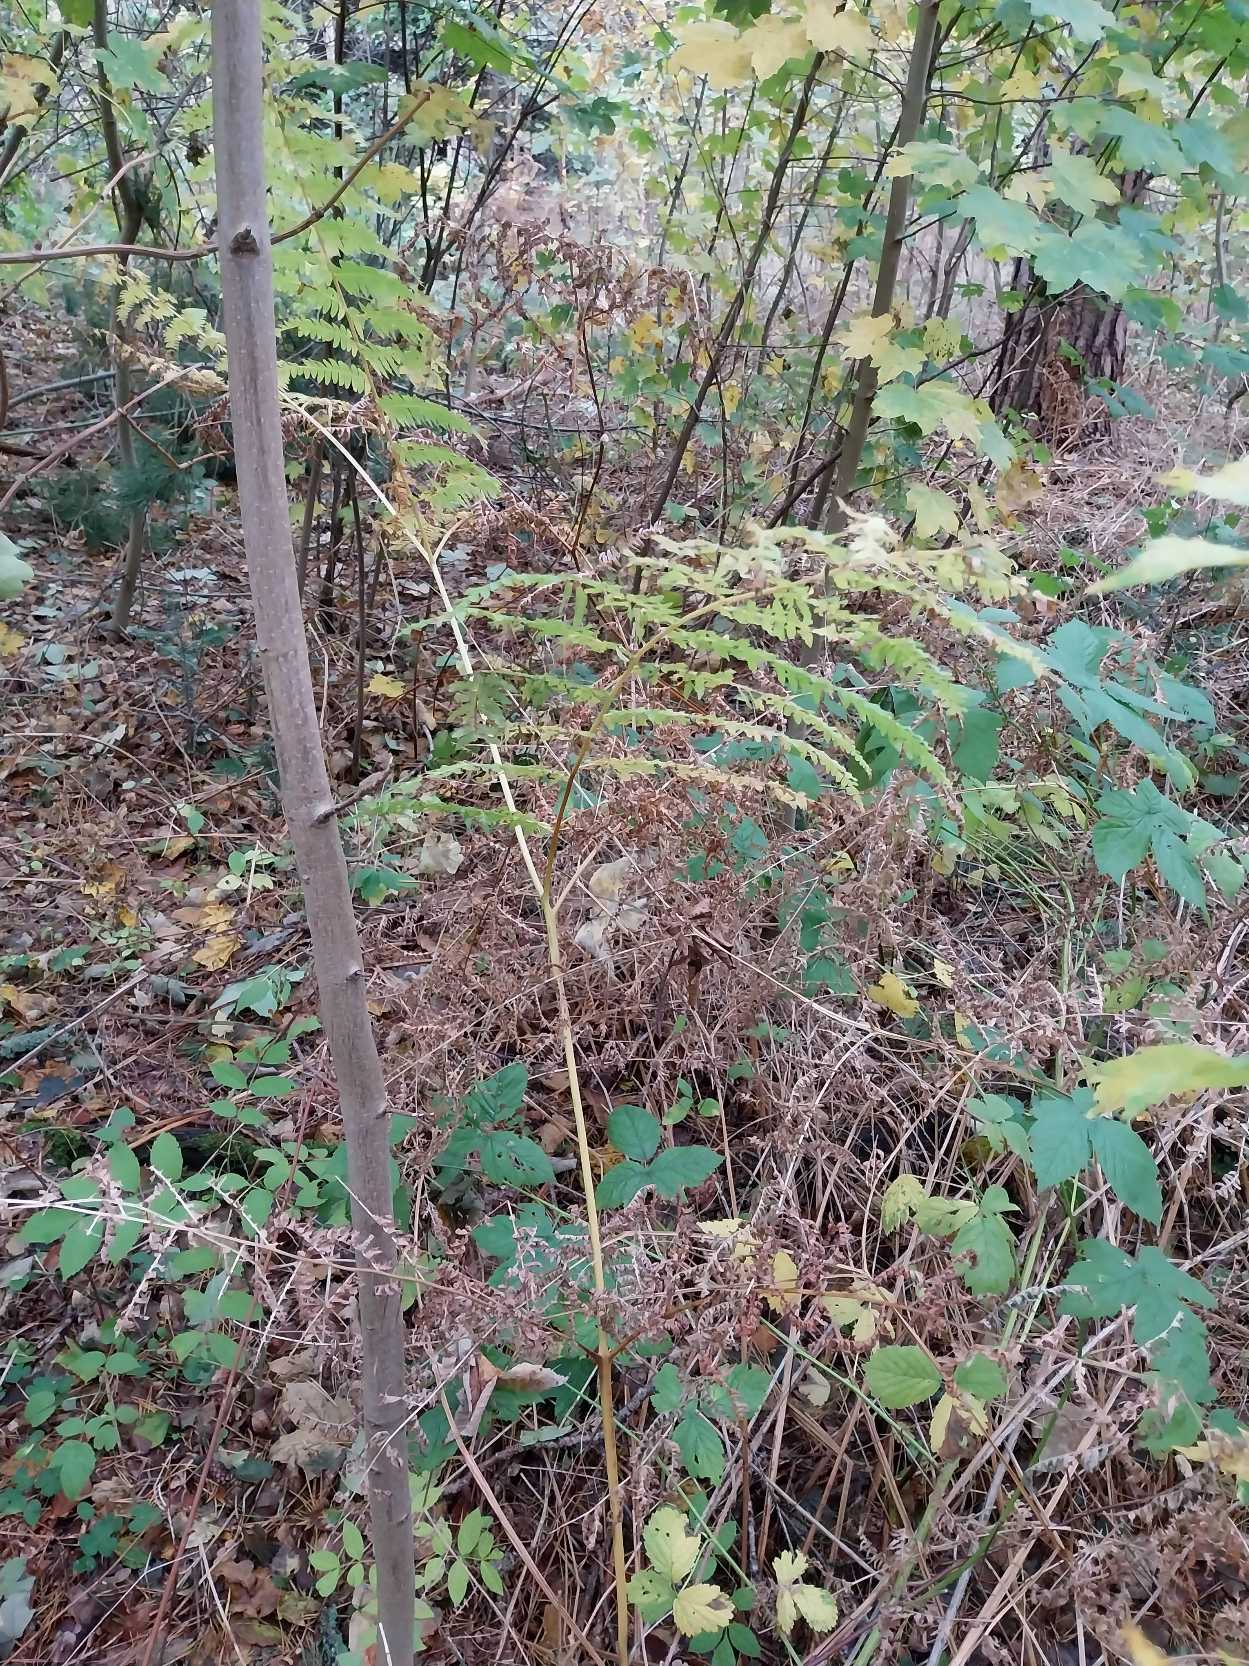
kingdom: Plantae
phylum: Tracheophyta
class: Polypodiopsida
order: Polypodiales
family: Dennstaedtiaceae
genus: Pteridium
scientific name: Pteridium aquilinum
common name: Ørnebregne
